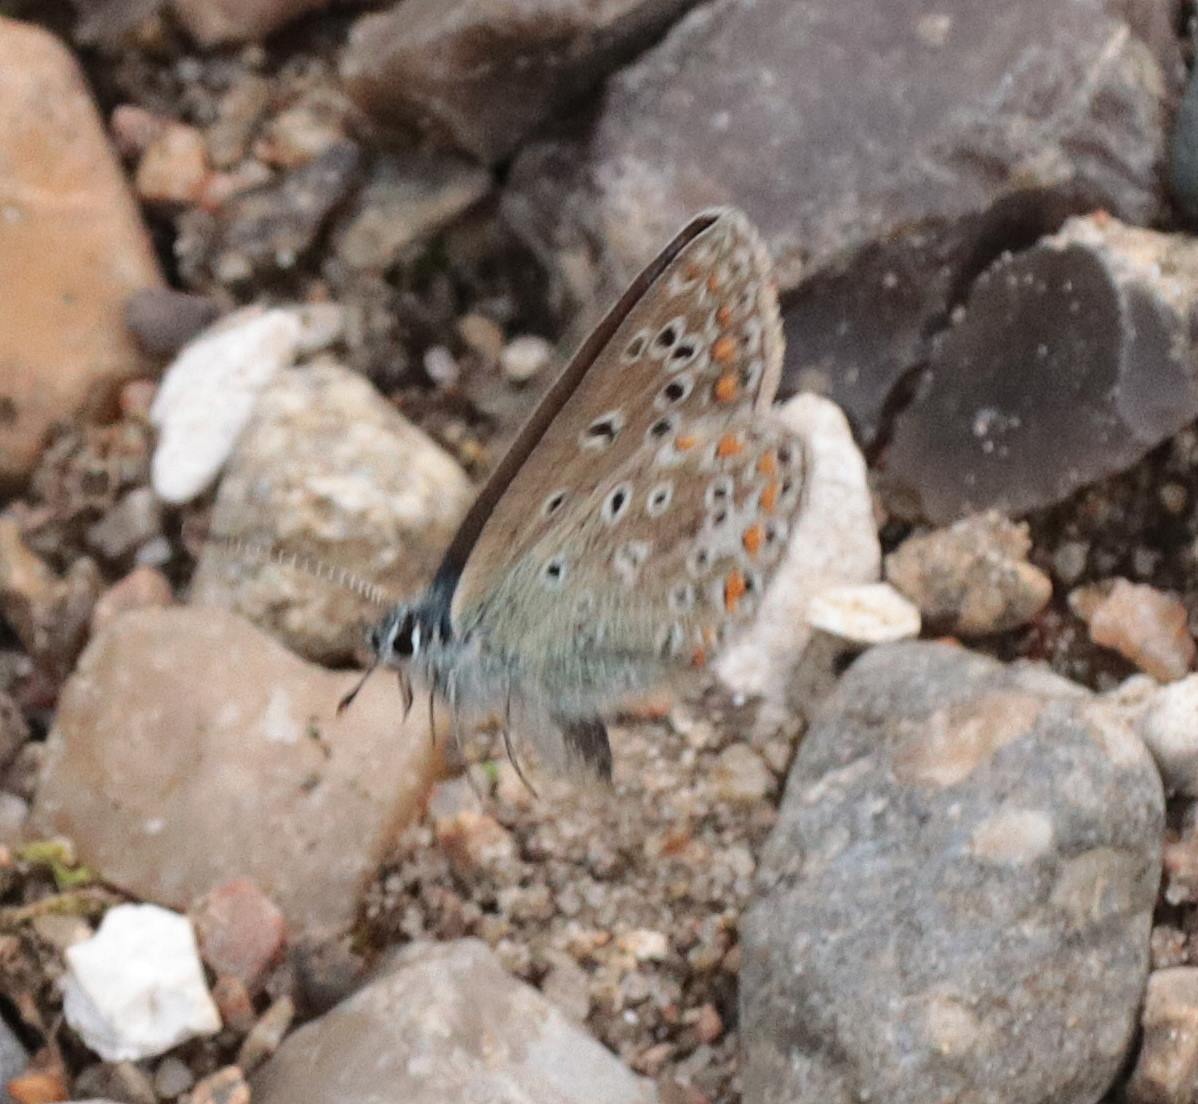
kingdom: Animalia
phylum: Arthropoda
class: Insecta
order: Lepidoptera
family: Lycaenidae
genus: Polyommatus
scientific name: Polyommatus icarus
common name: Almindelig blåfugl
